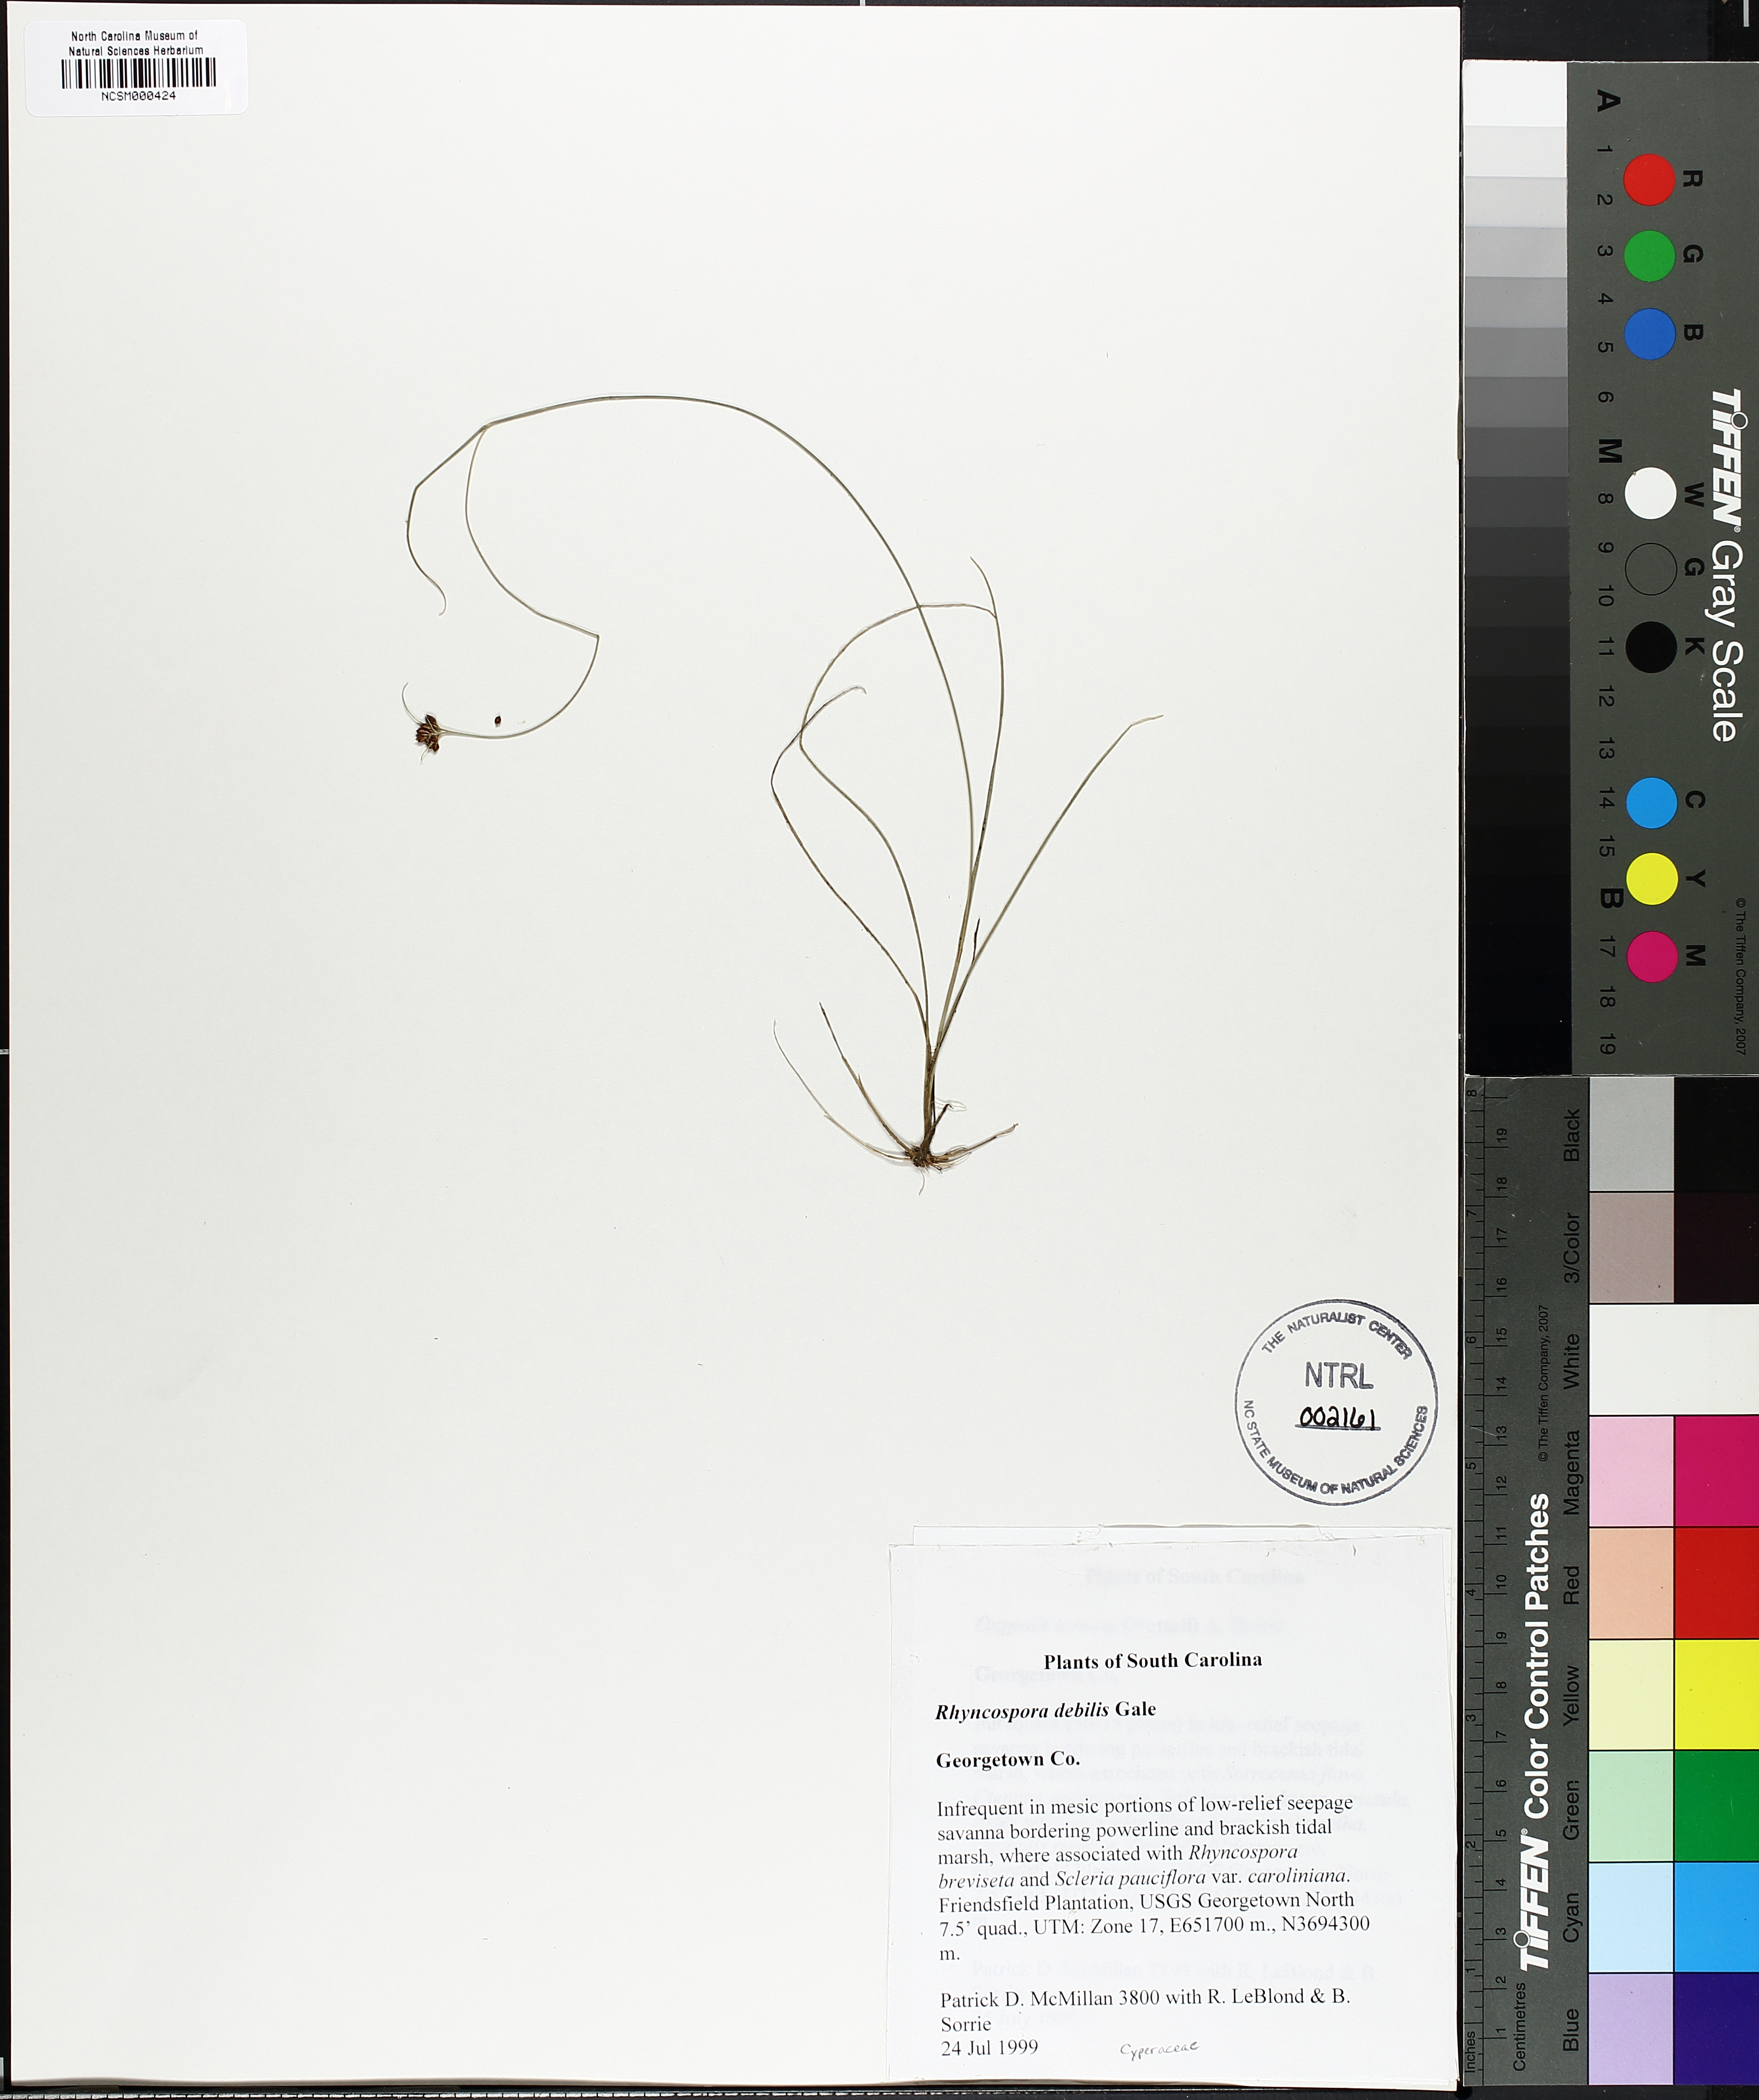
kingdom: Plantae
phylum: Tracheophyta
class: Liliopsida
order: Poales
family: Cyperaceae
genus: Rhynchospora
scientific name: Rhynchospora debilis
